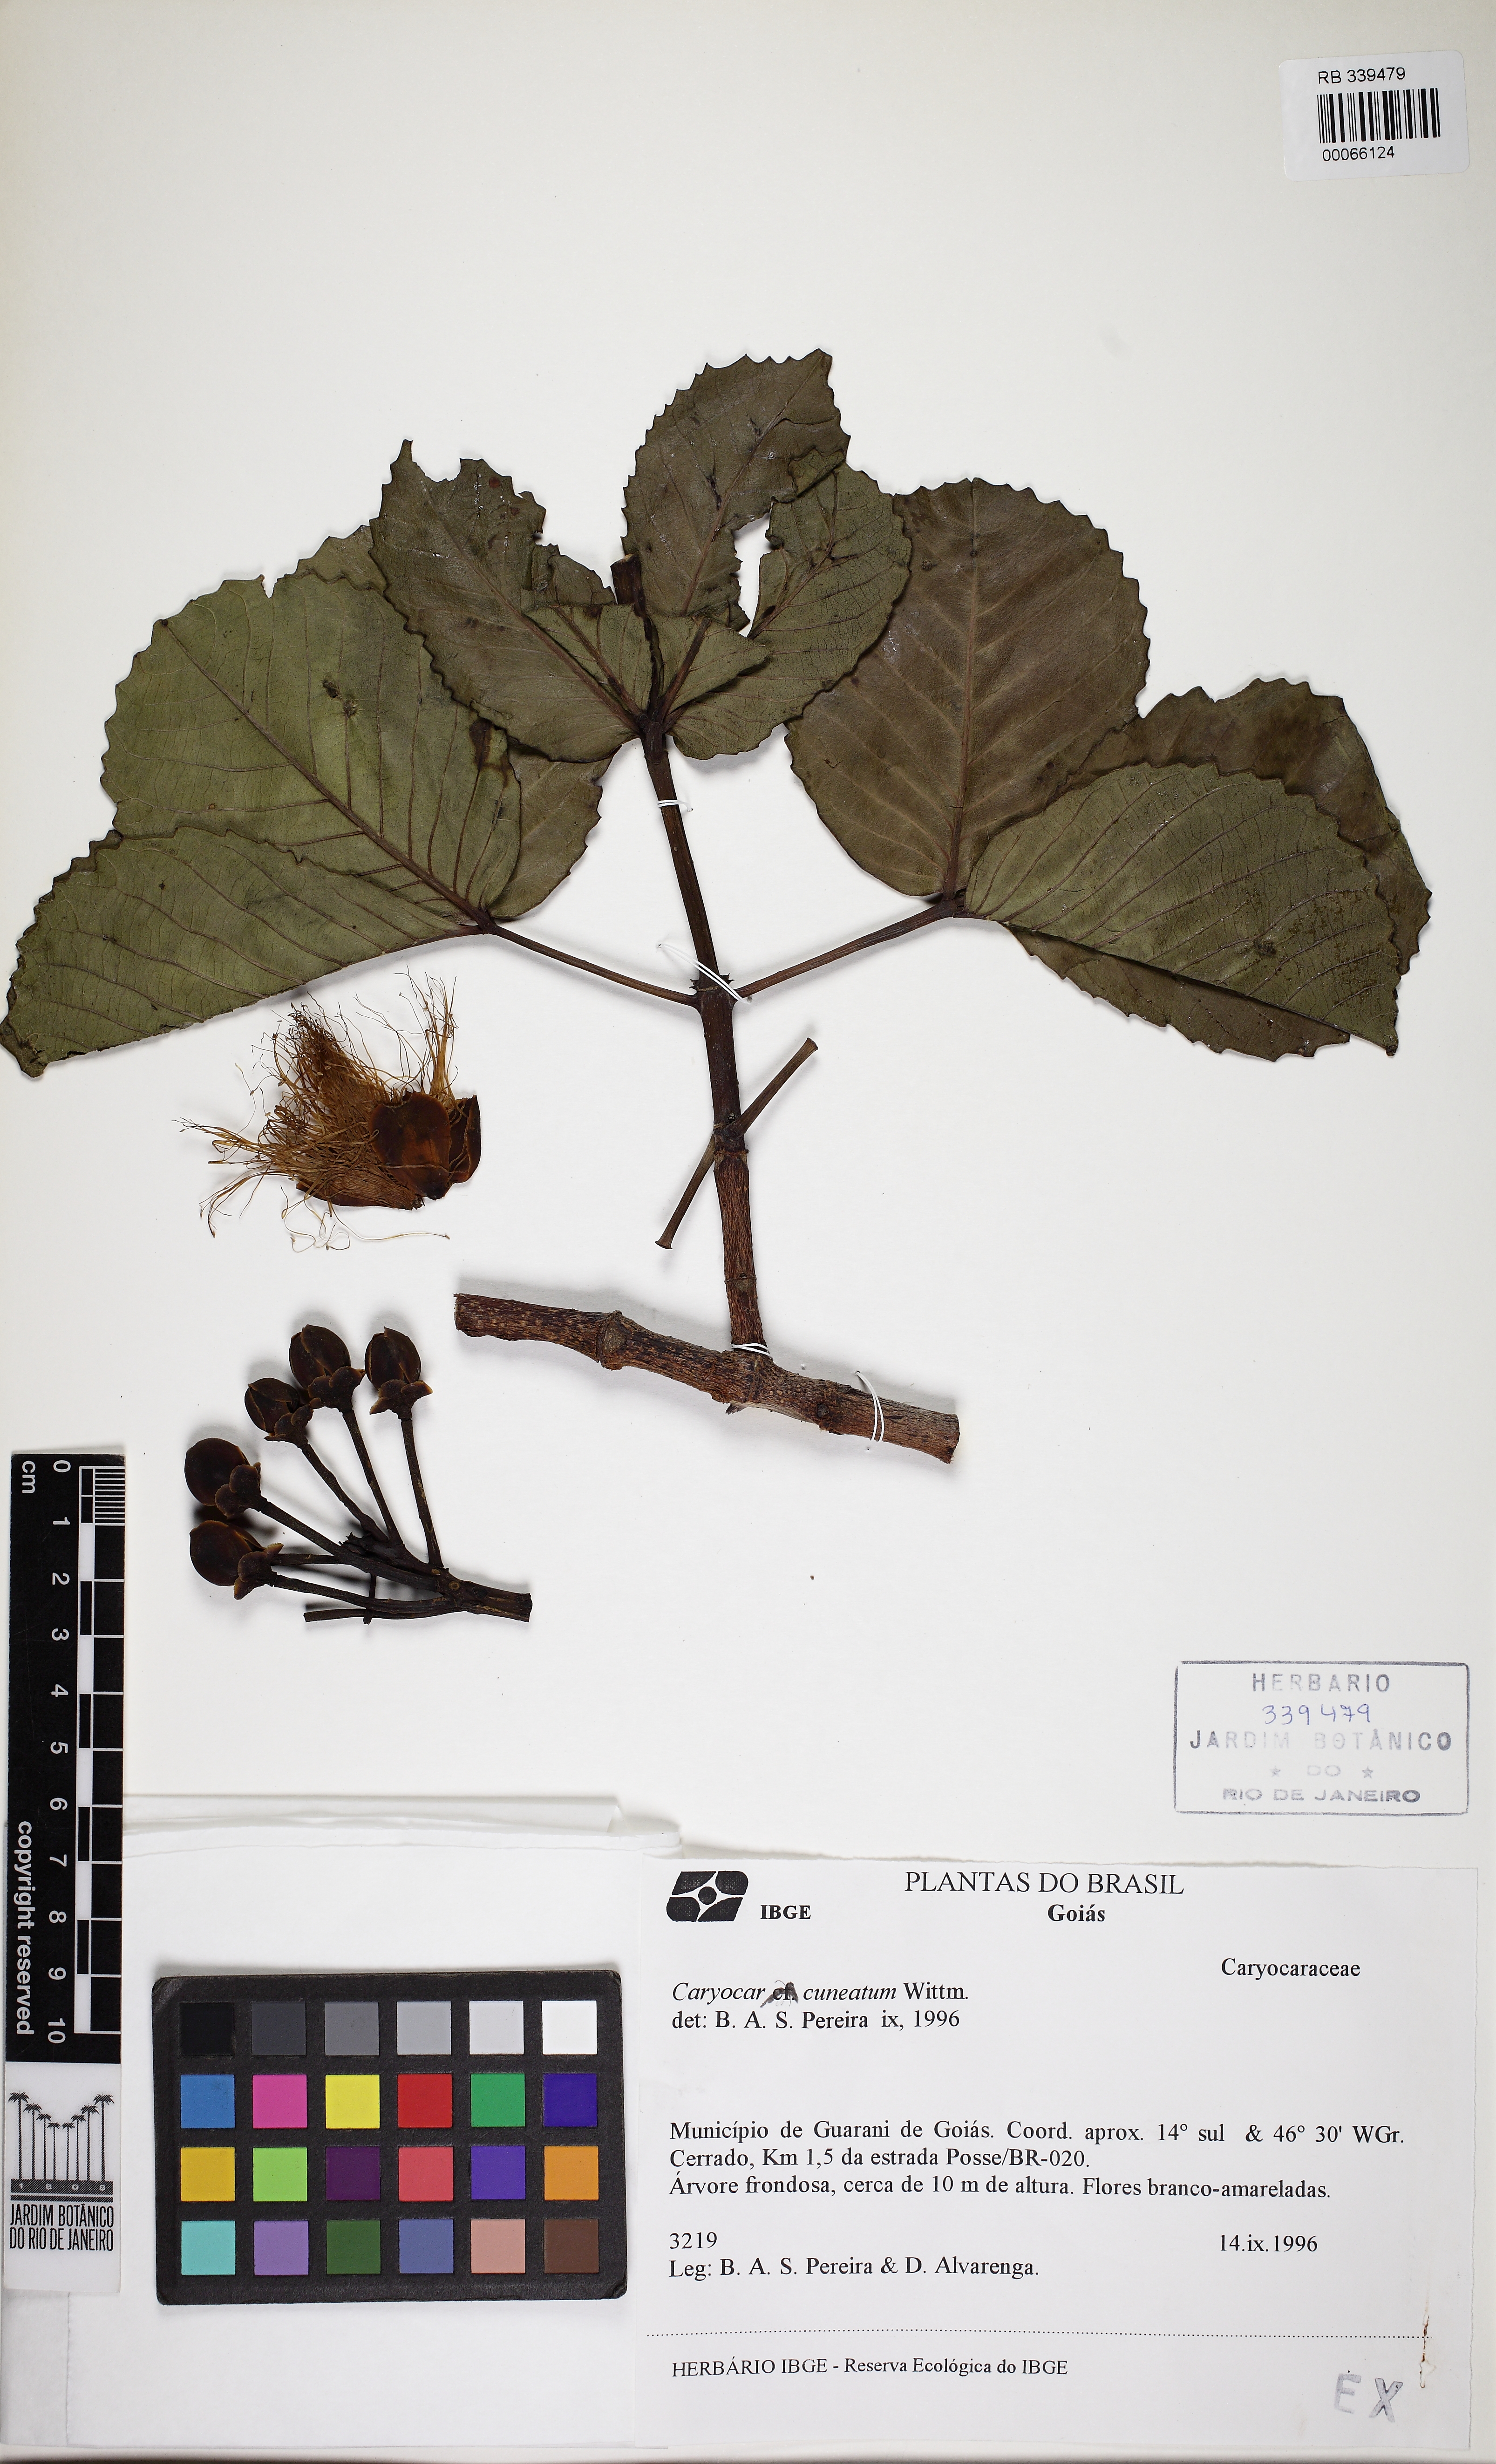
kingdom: Plantae
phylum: Tracheophyta
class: Magnoliopsida
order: Malpighiales
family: Caryocaraceae
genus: Caryocar
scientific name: Caryocar cuneatum
